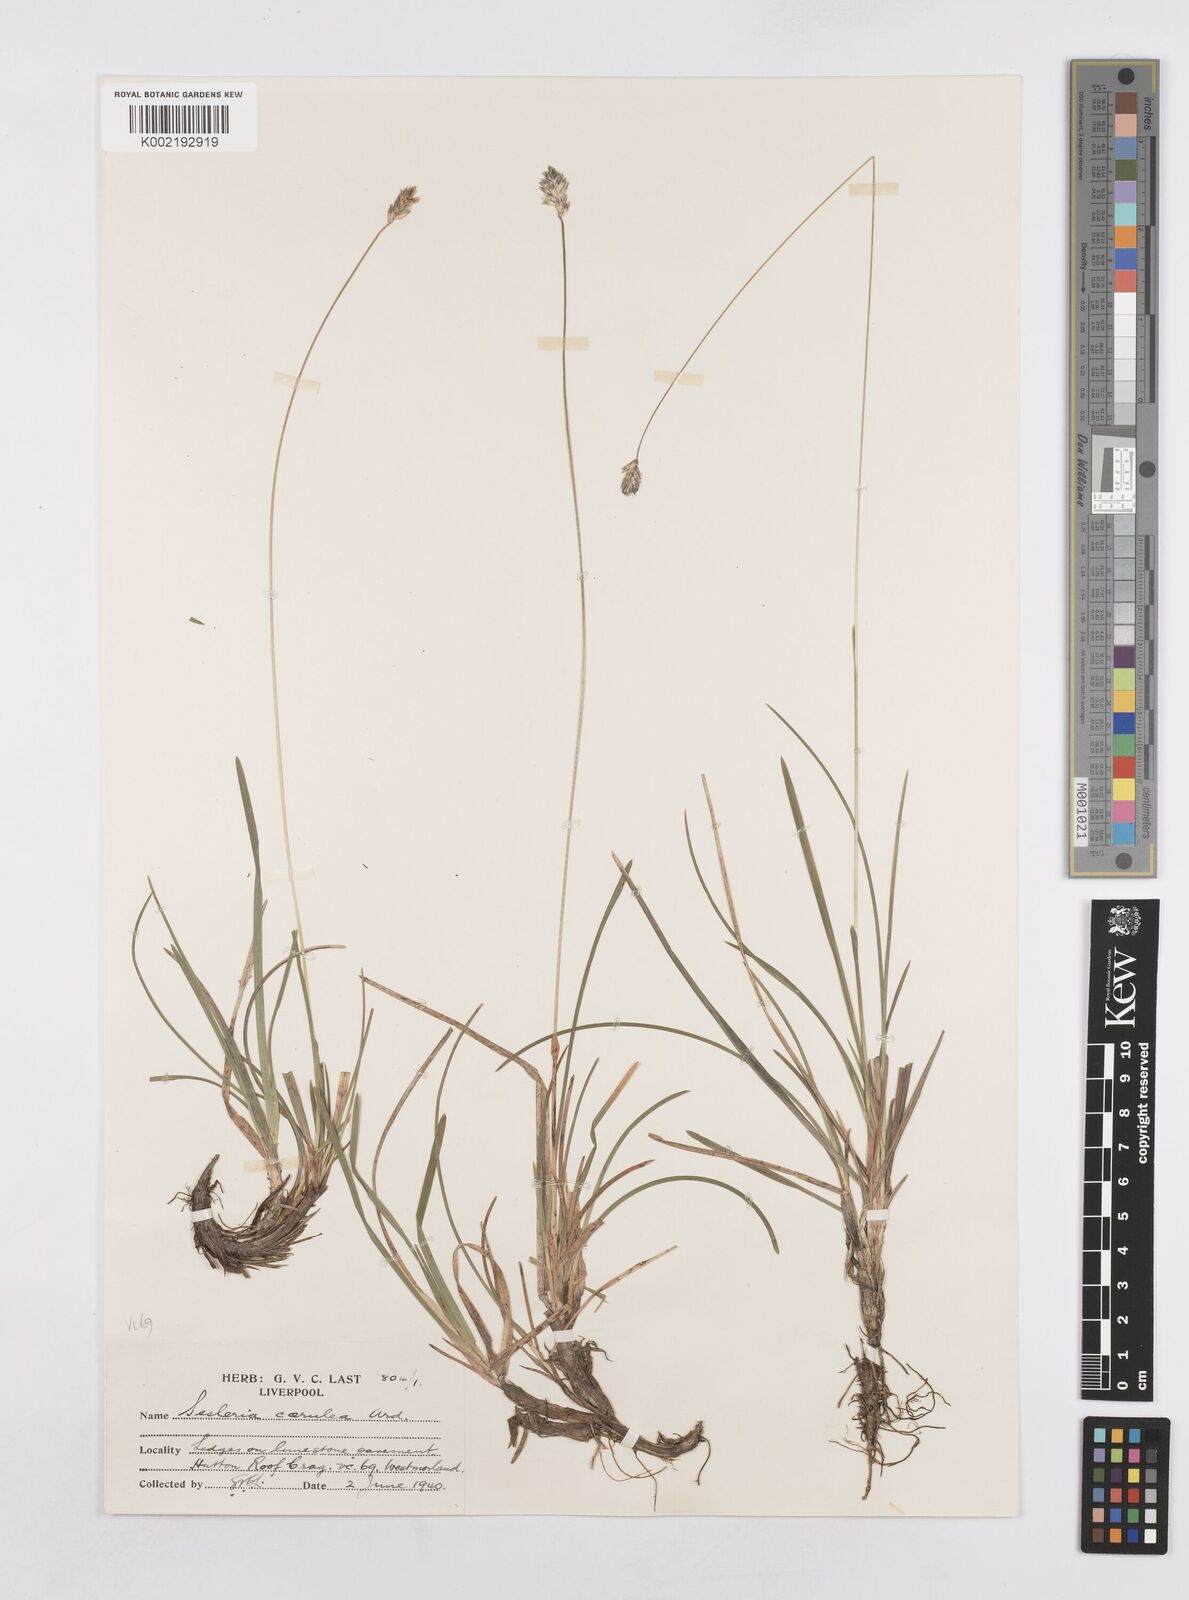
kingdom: Plantae
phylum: Tracheophyta
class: Liliopsida
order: Poales
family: Poaceae
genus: Sesleria
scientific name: Sesleria caerulea
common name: Blue moor-grass
